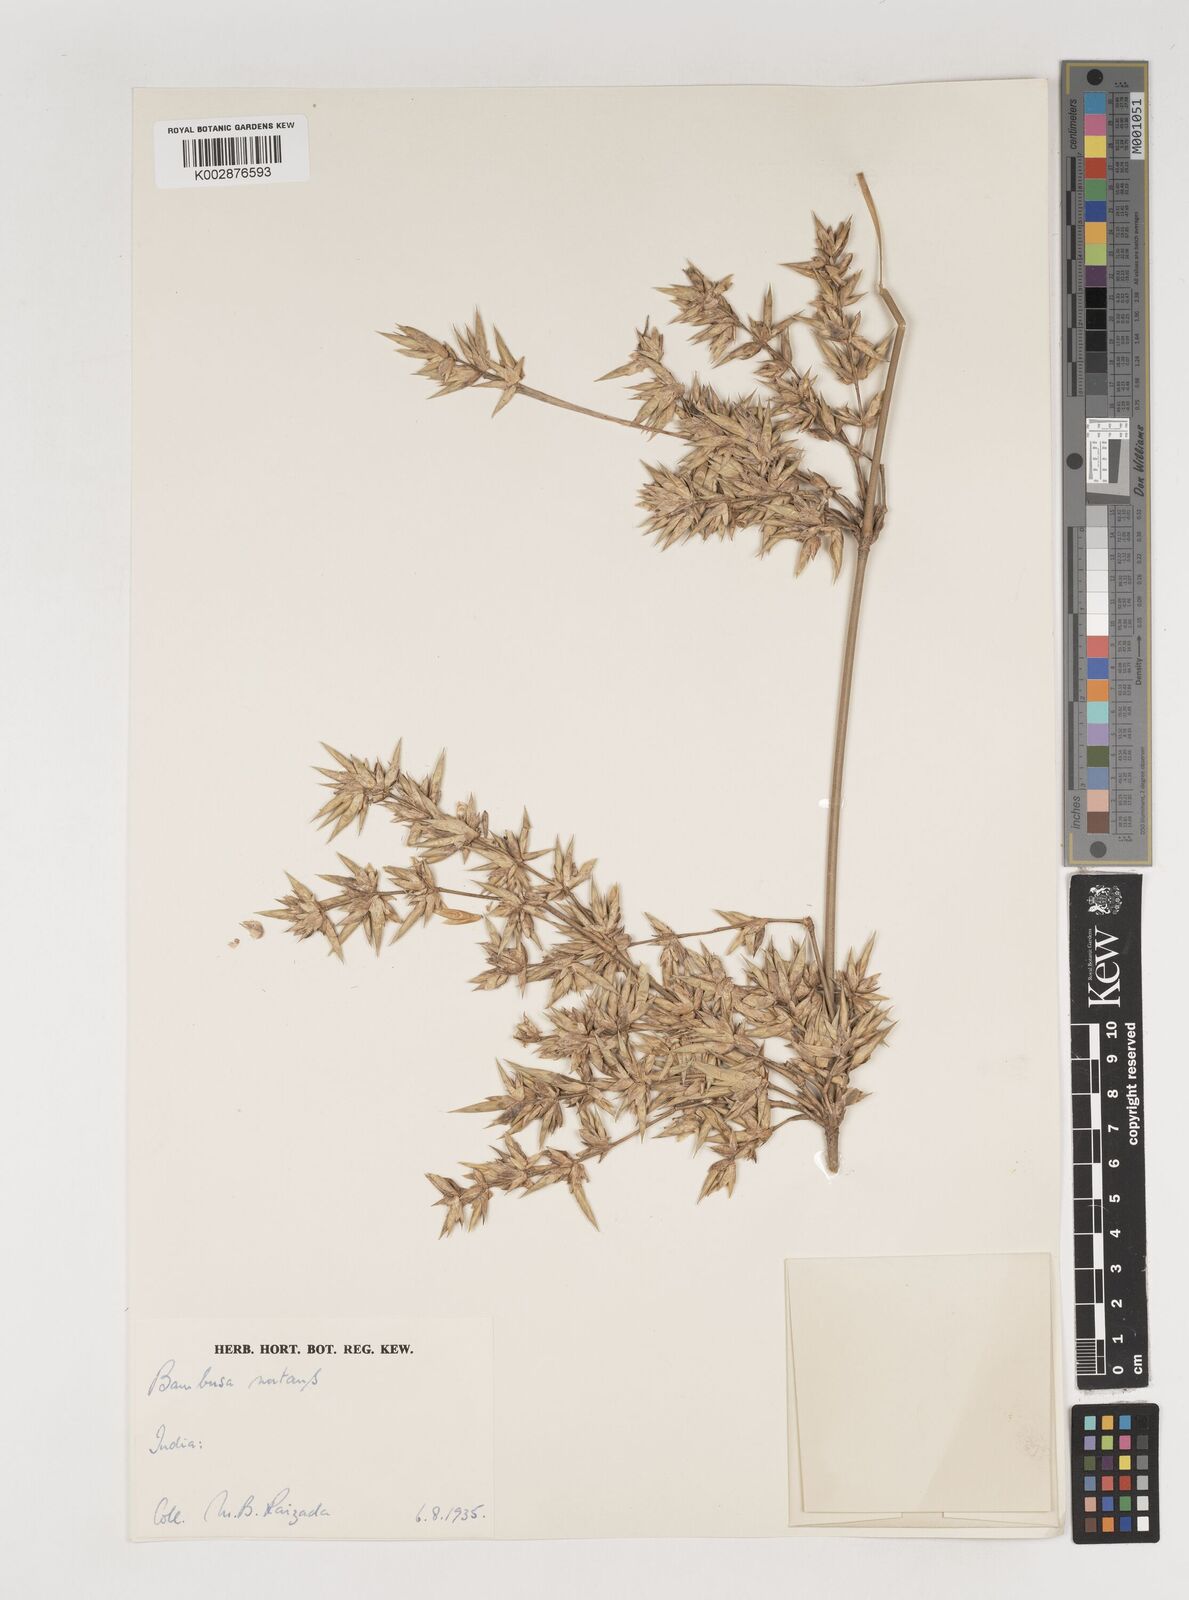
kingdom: Plantae
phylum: Tracheophyta
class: Liliopsida
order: Poales
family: Poaceae
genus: Bambusa
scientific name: Bambusa nutans
